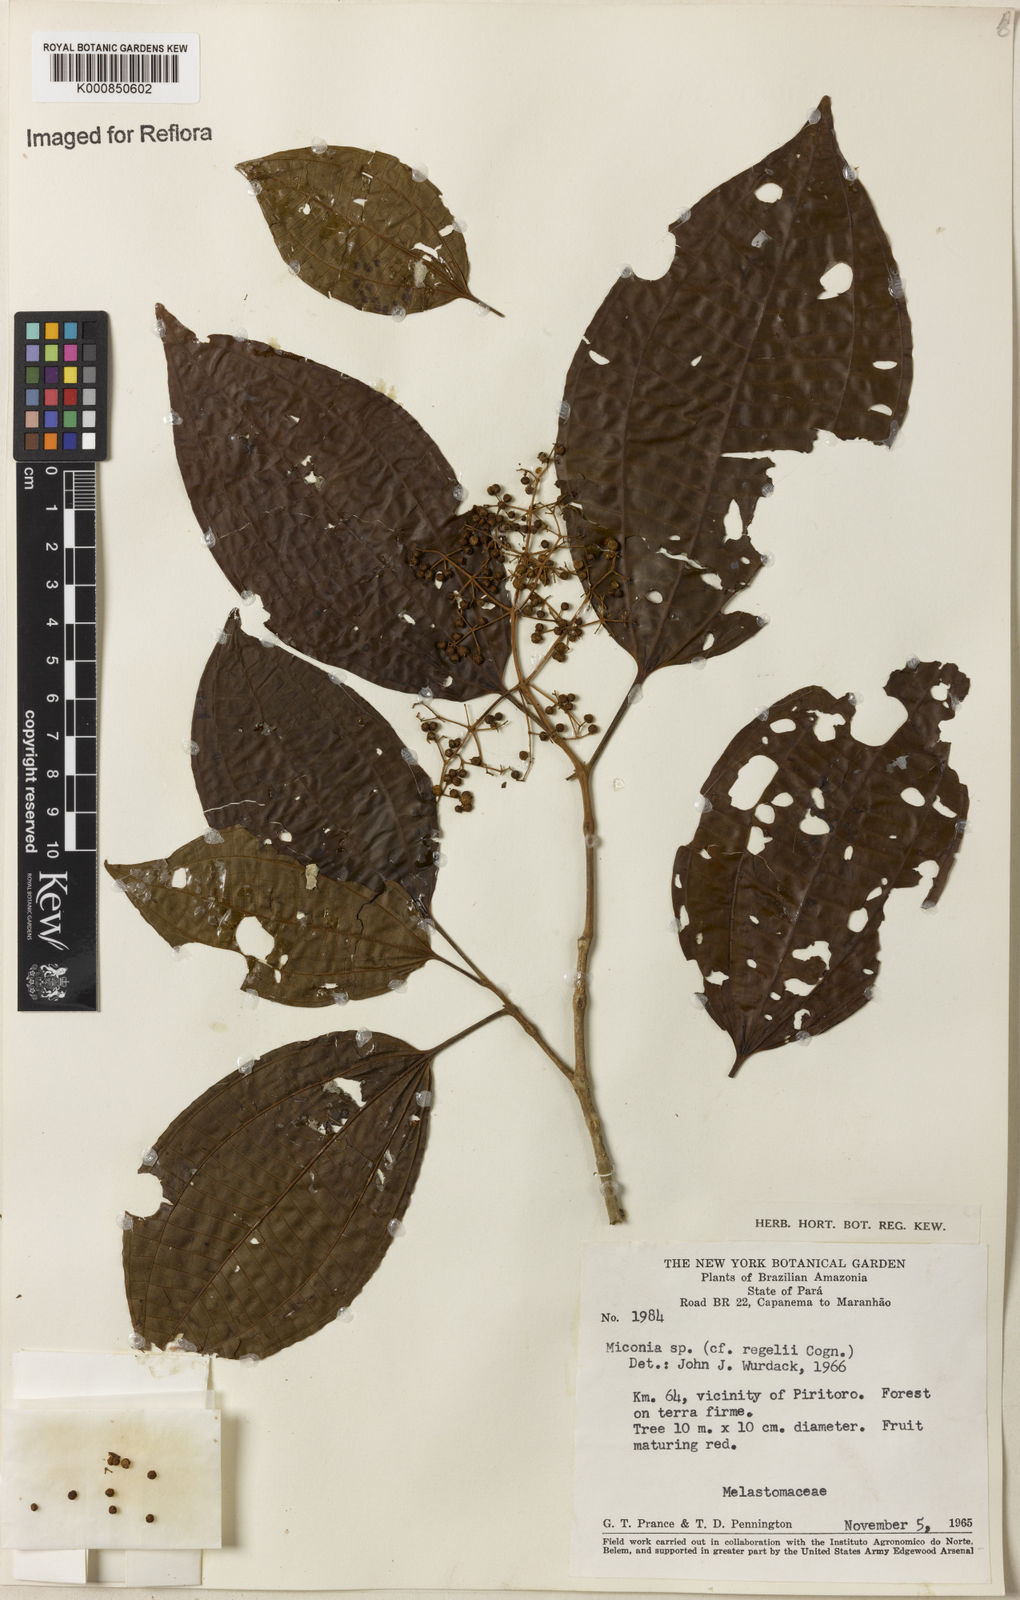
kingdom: Plantae
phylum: Tracheophyta
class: Magnoliopsida
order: Myrtales
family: Melastomataceae
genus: Miconia
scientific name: Miconia
